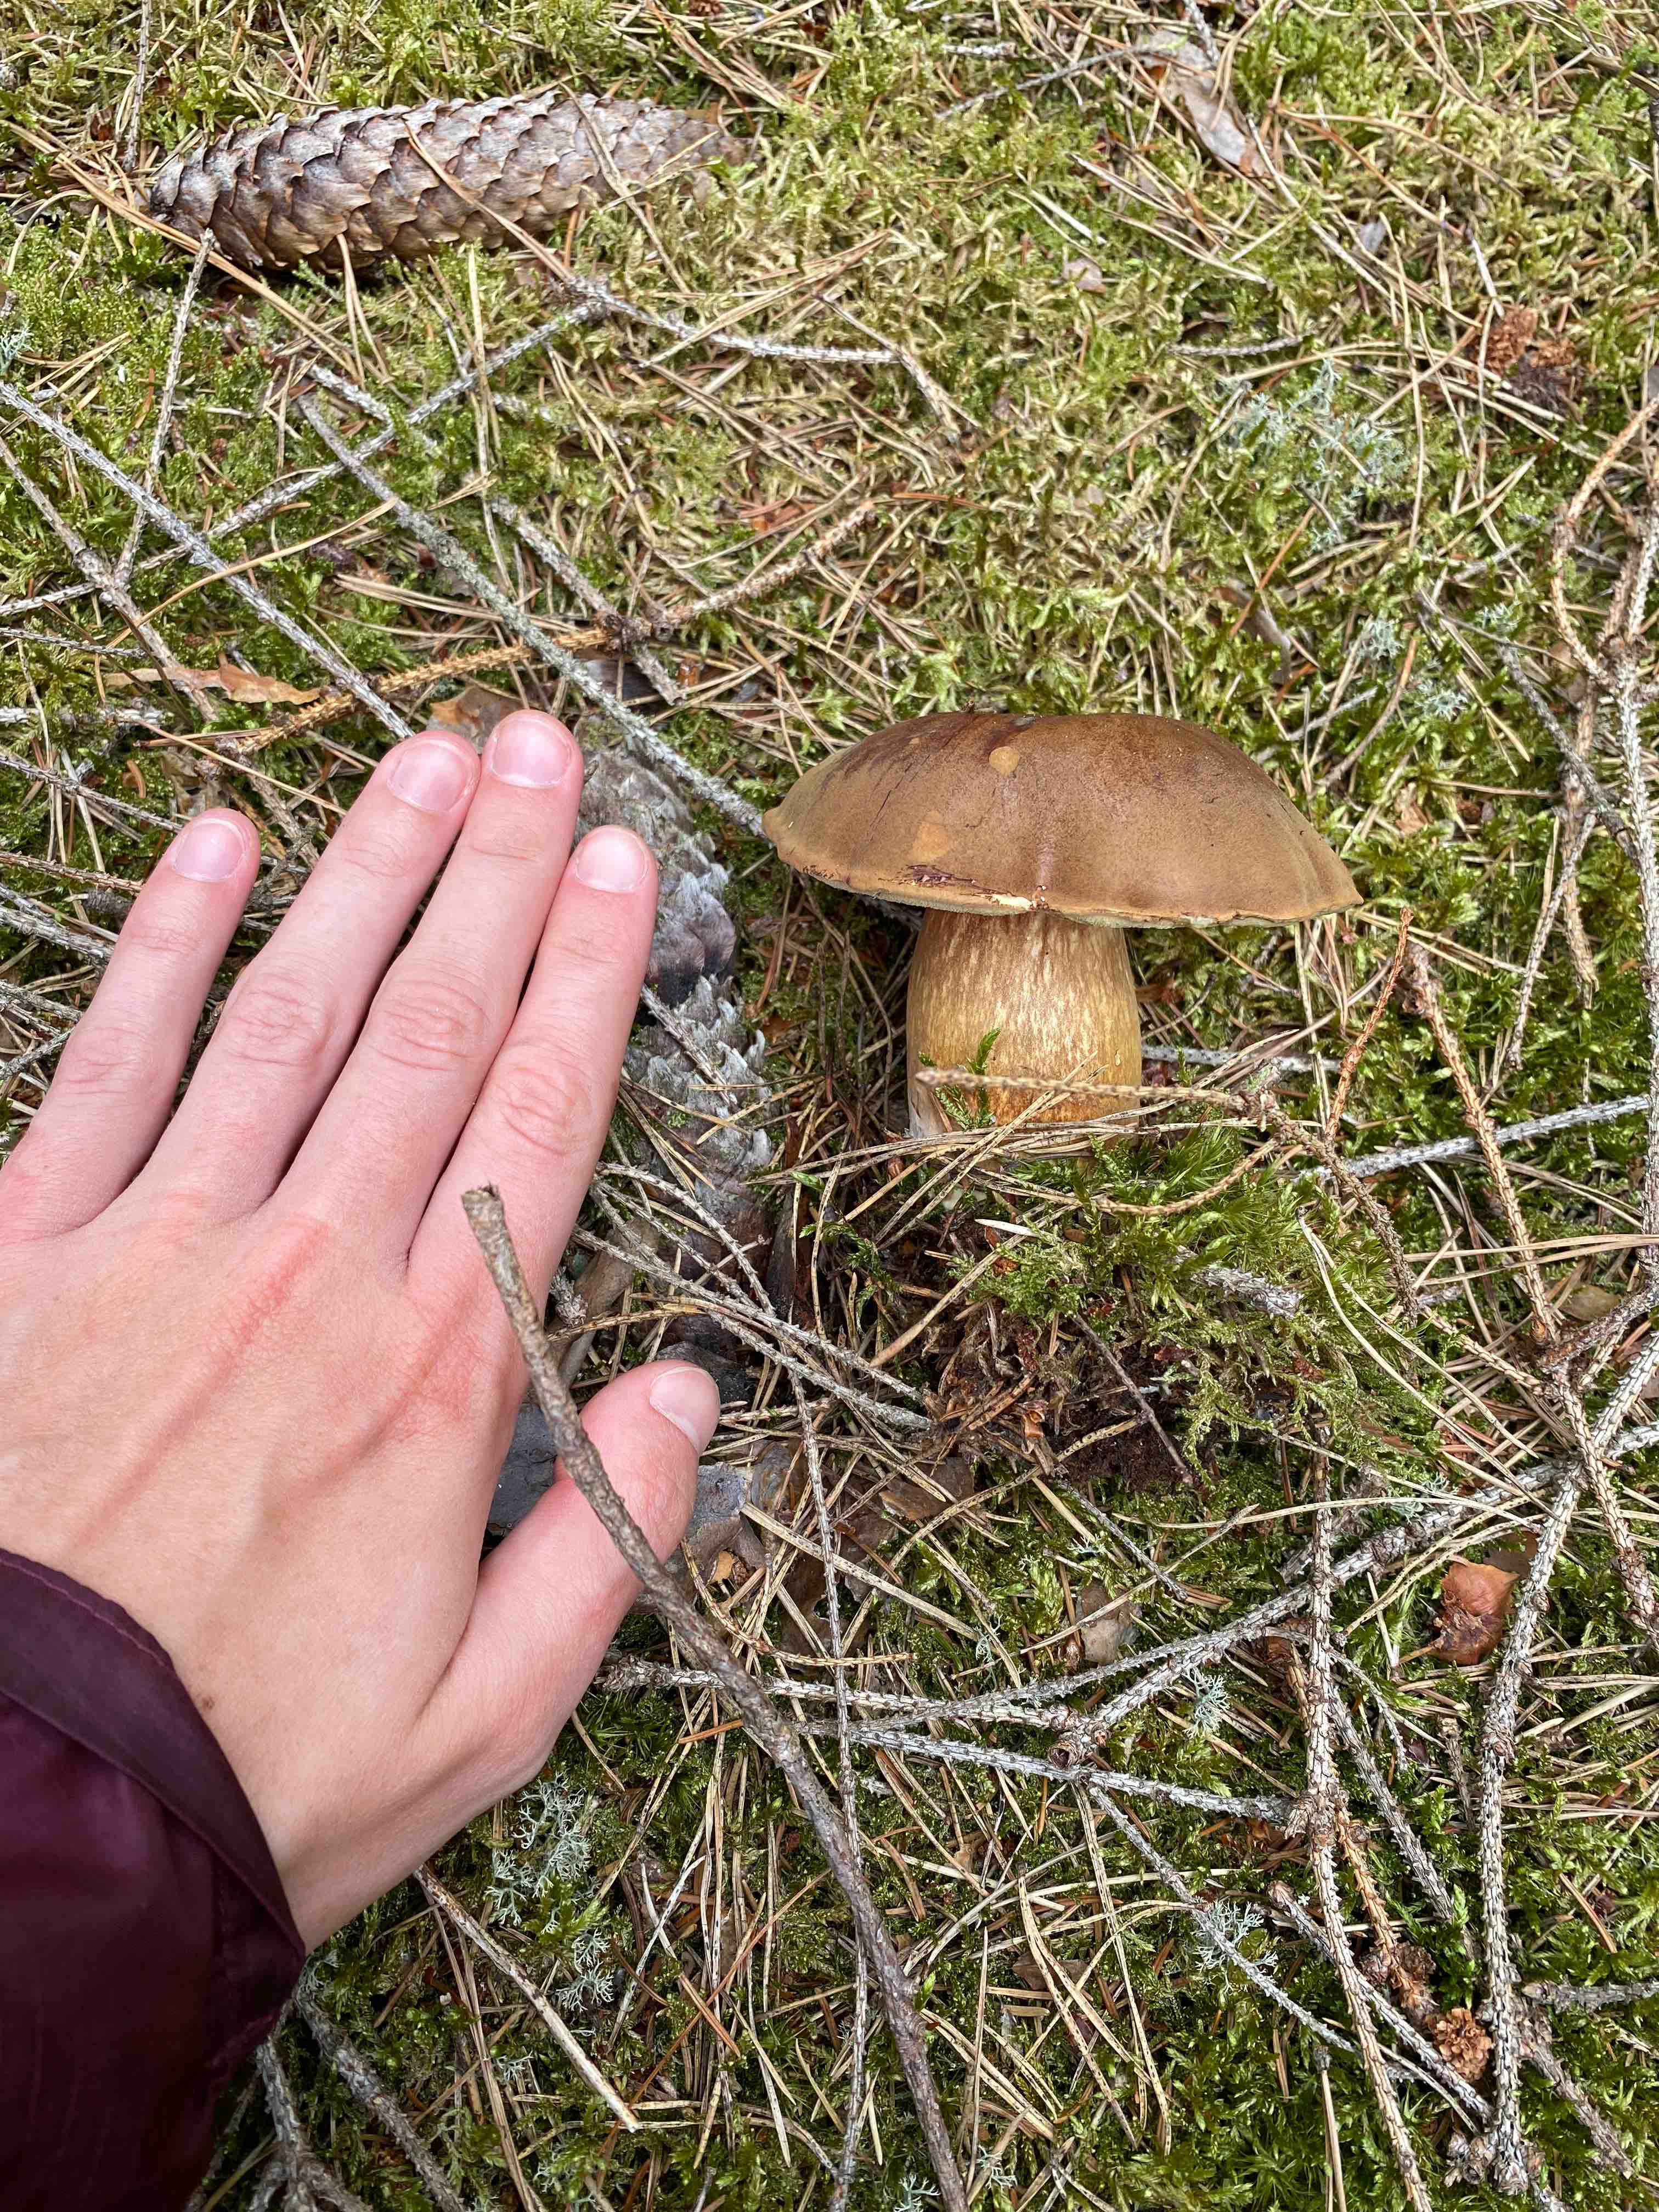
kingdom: Fungi
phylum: Basidiomycota
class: Agaricomycetes
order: Boletales
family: Boletaceae
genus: Imleria
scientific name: Imleria badia
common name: brunstokket rørhat
